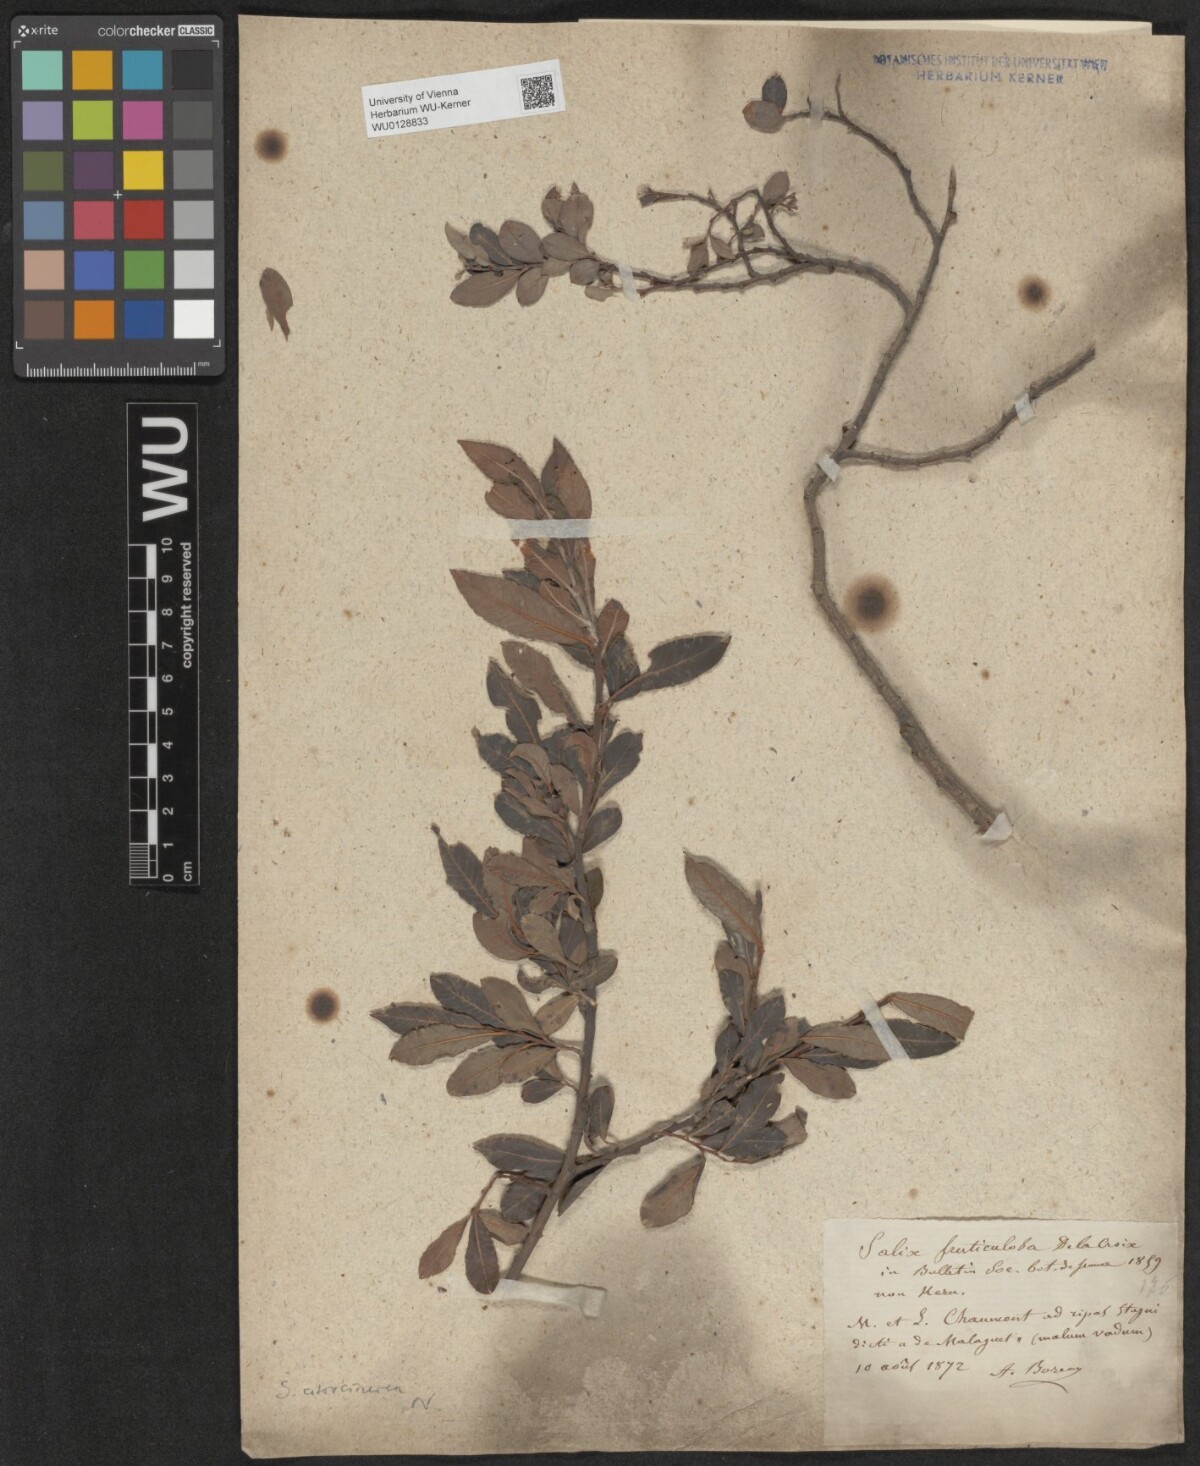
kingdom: Plantae
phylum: Tracheophyta
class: Magnoliopsida
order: Malpighiales
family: Salicaceae
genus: Salix
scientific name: Salix atrocinerea
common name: Rusty willow
